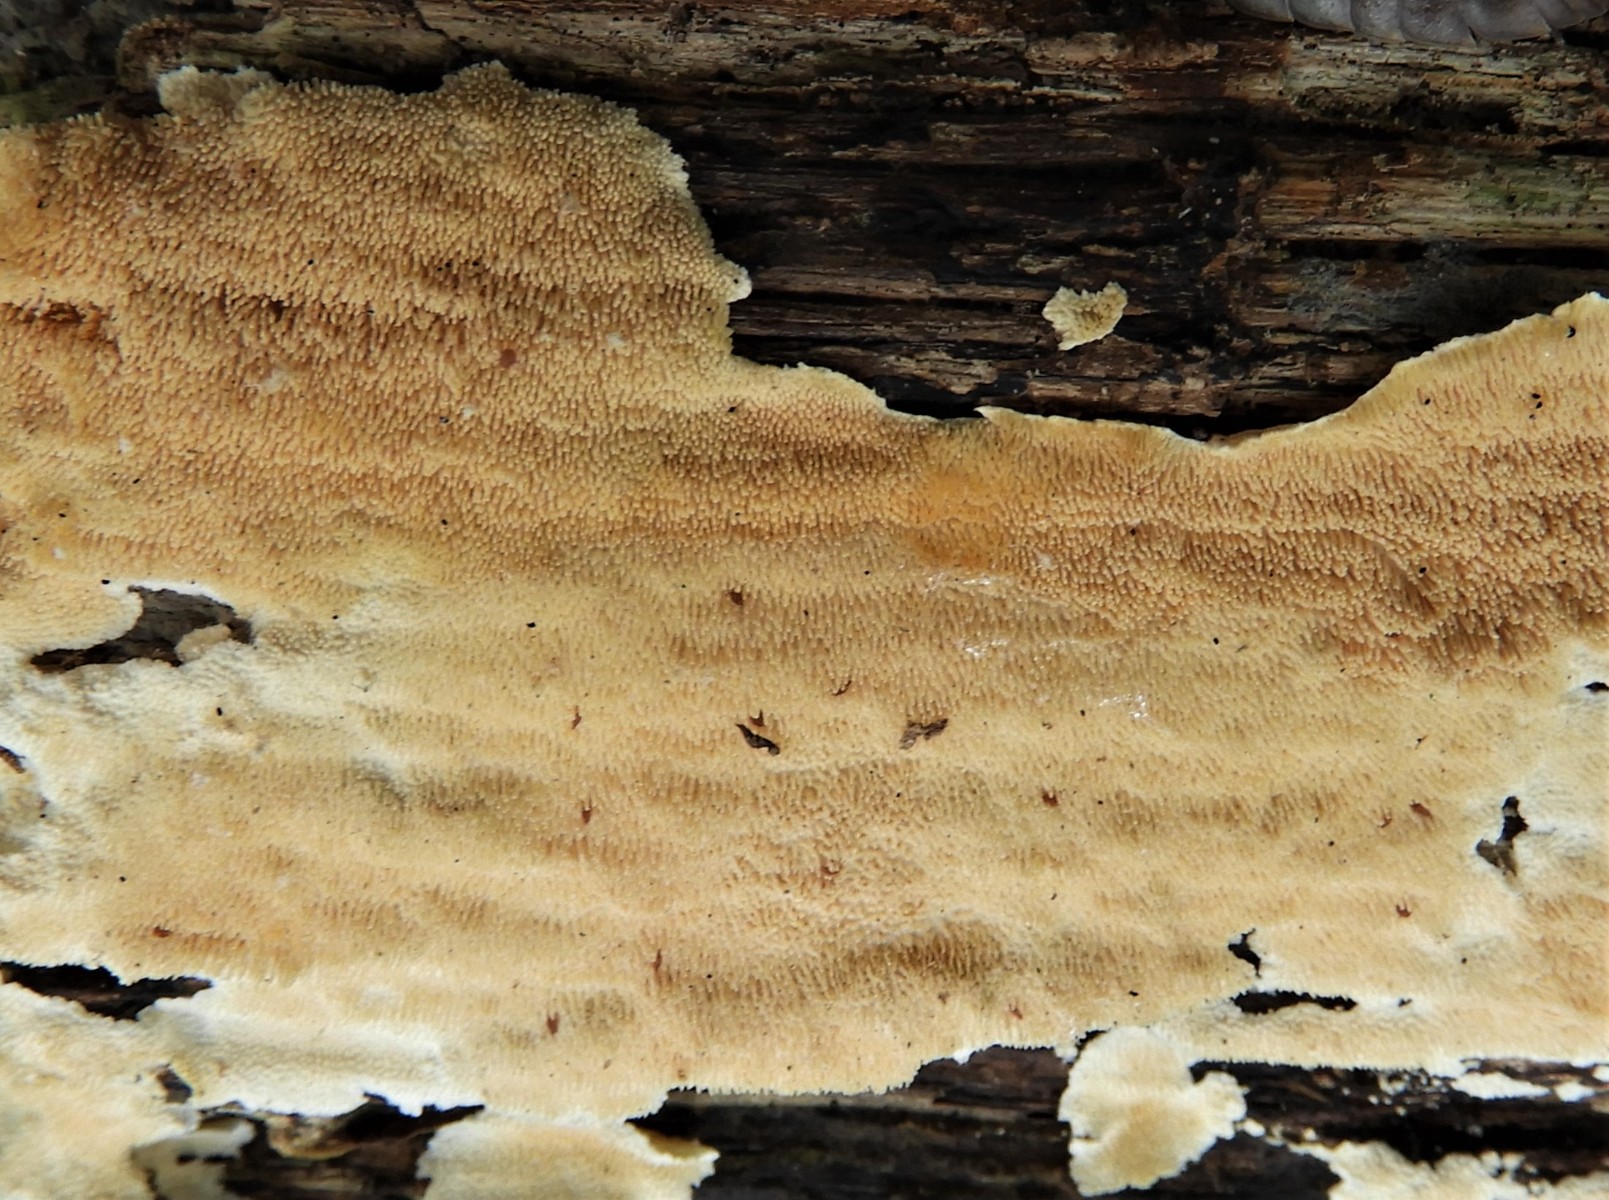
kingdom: Fungi
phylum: Basidiomycota
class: Agaricomycetes
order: Polyporales
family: Steccherinaceae
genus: Steccherinum
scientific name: Steccherinum ochraceum
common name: almindelig skønpig
